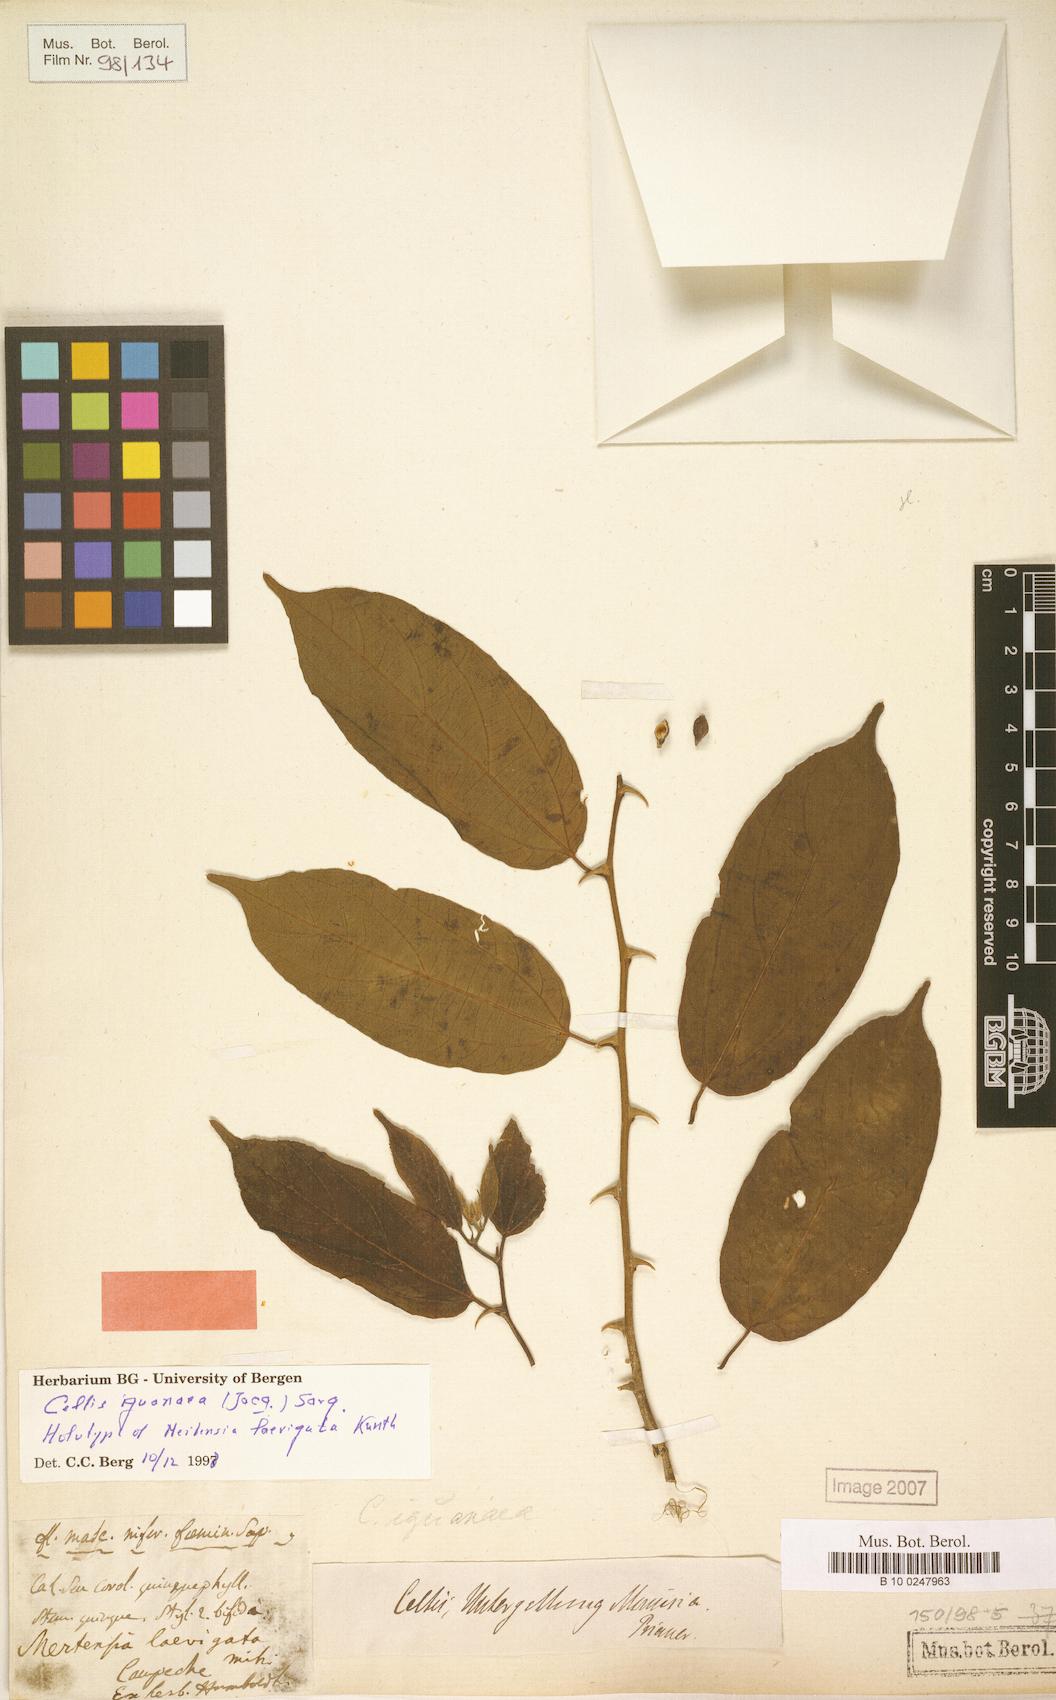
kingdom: Plantae
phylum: Tracheophyta
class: Magnoliopsida
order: Rosales
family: Cannabaceae
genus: Celtis
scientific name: Celtis iguanaea
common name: Iguana hackberry
